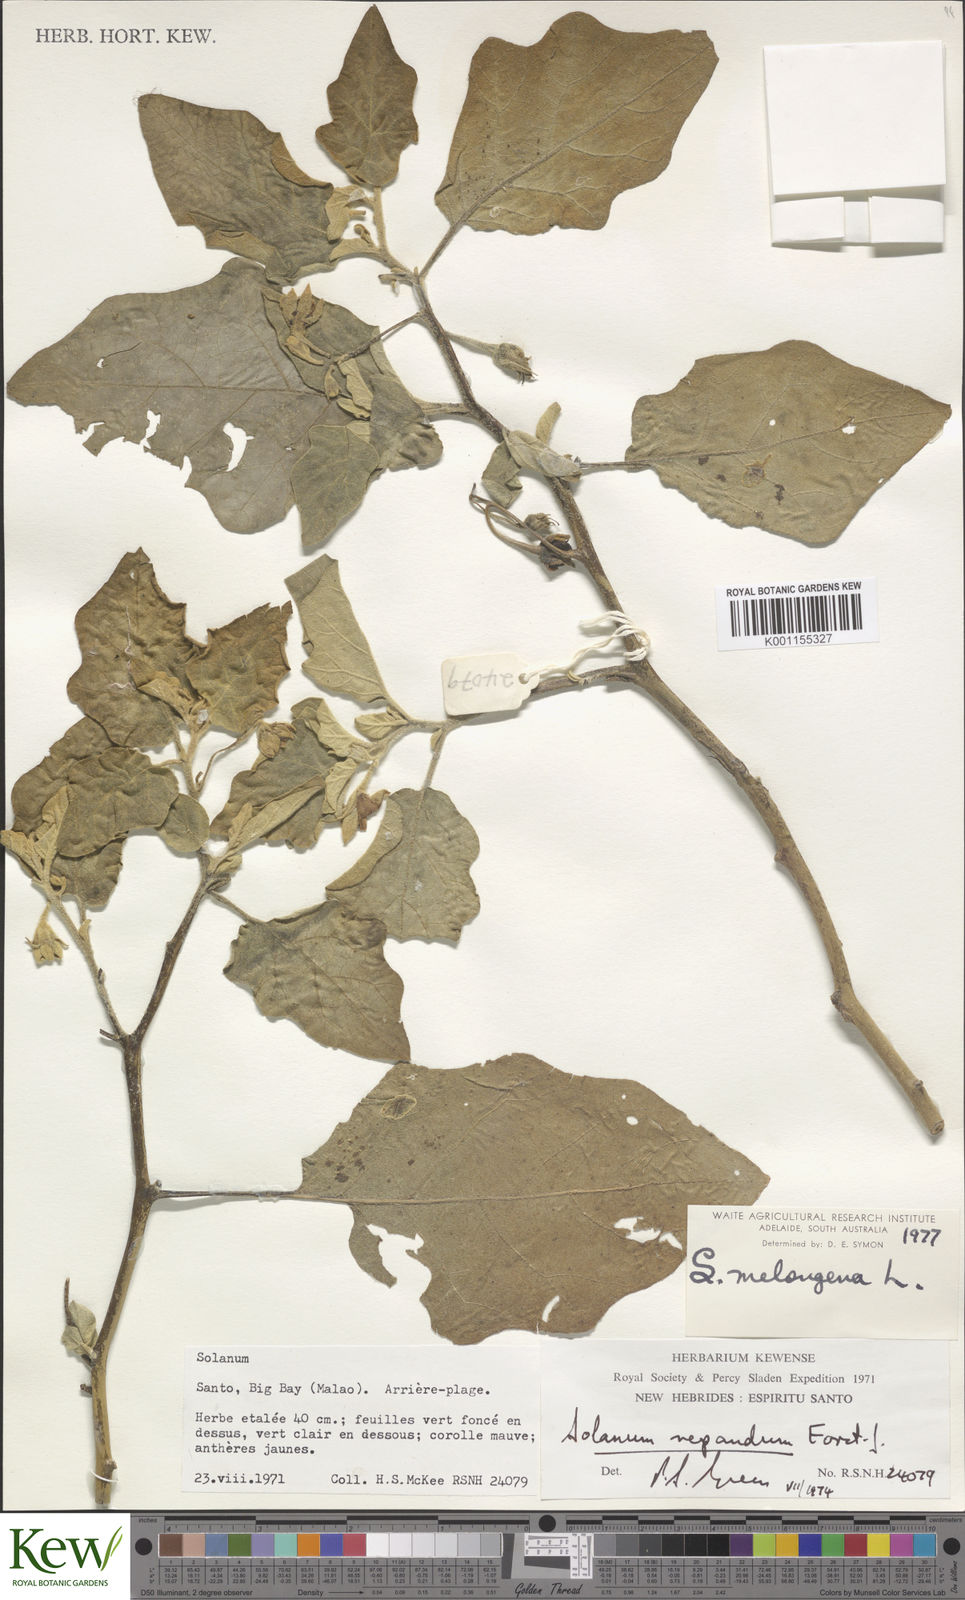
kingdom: Plantae
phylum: Tracheophyta
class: Magnoliopsida
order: Solanales
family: Solanaceae
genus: Solanum
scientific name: Solanum melongena
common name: Eggplant
